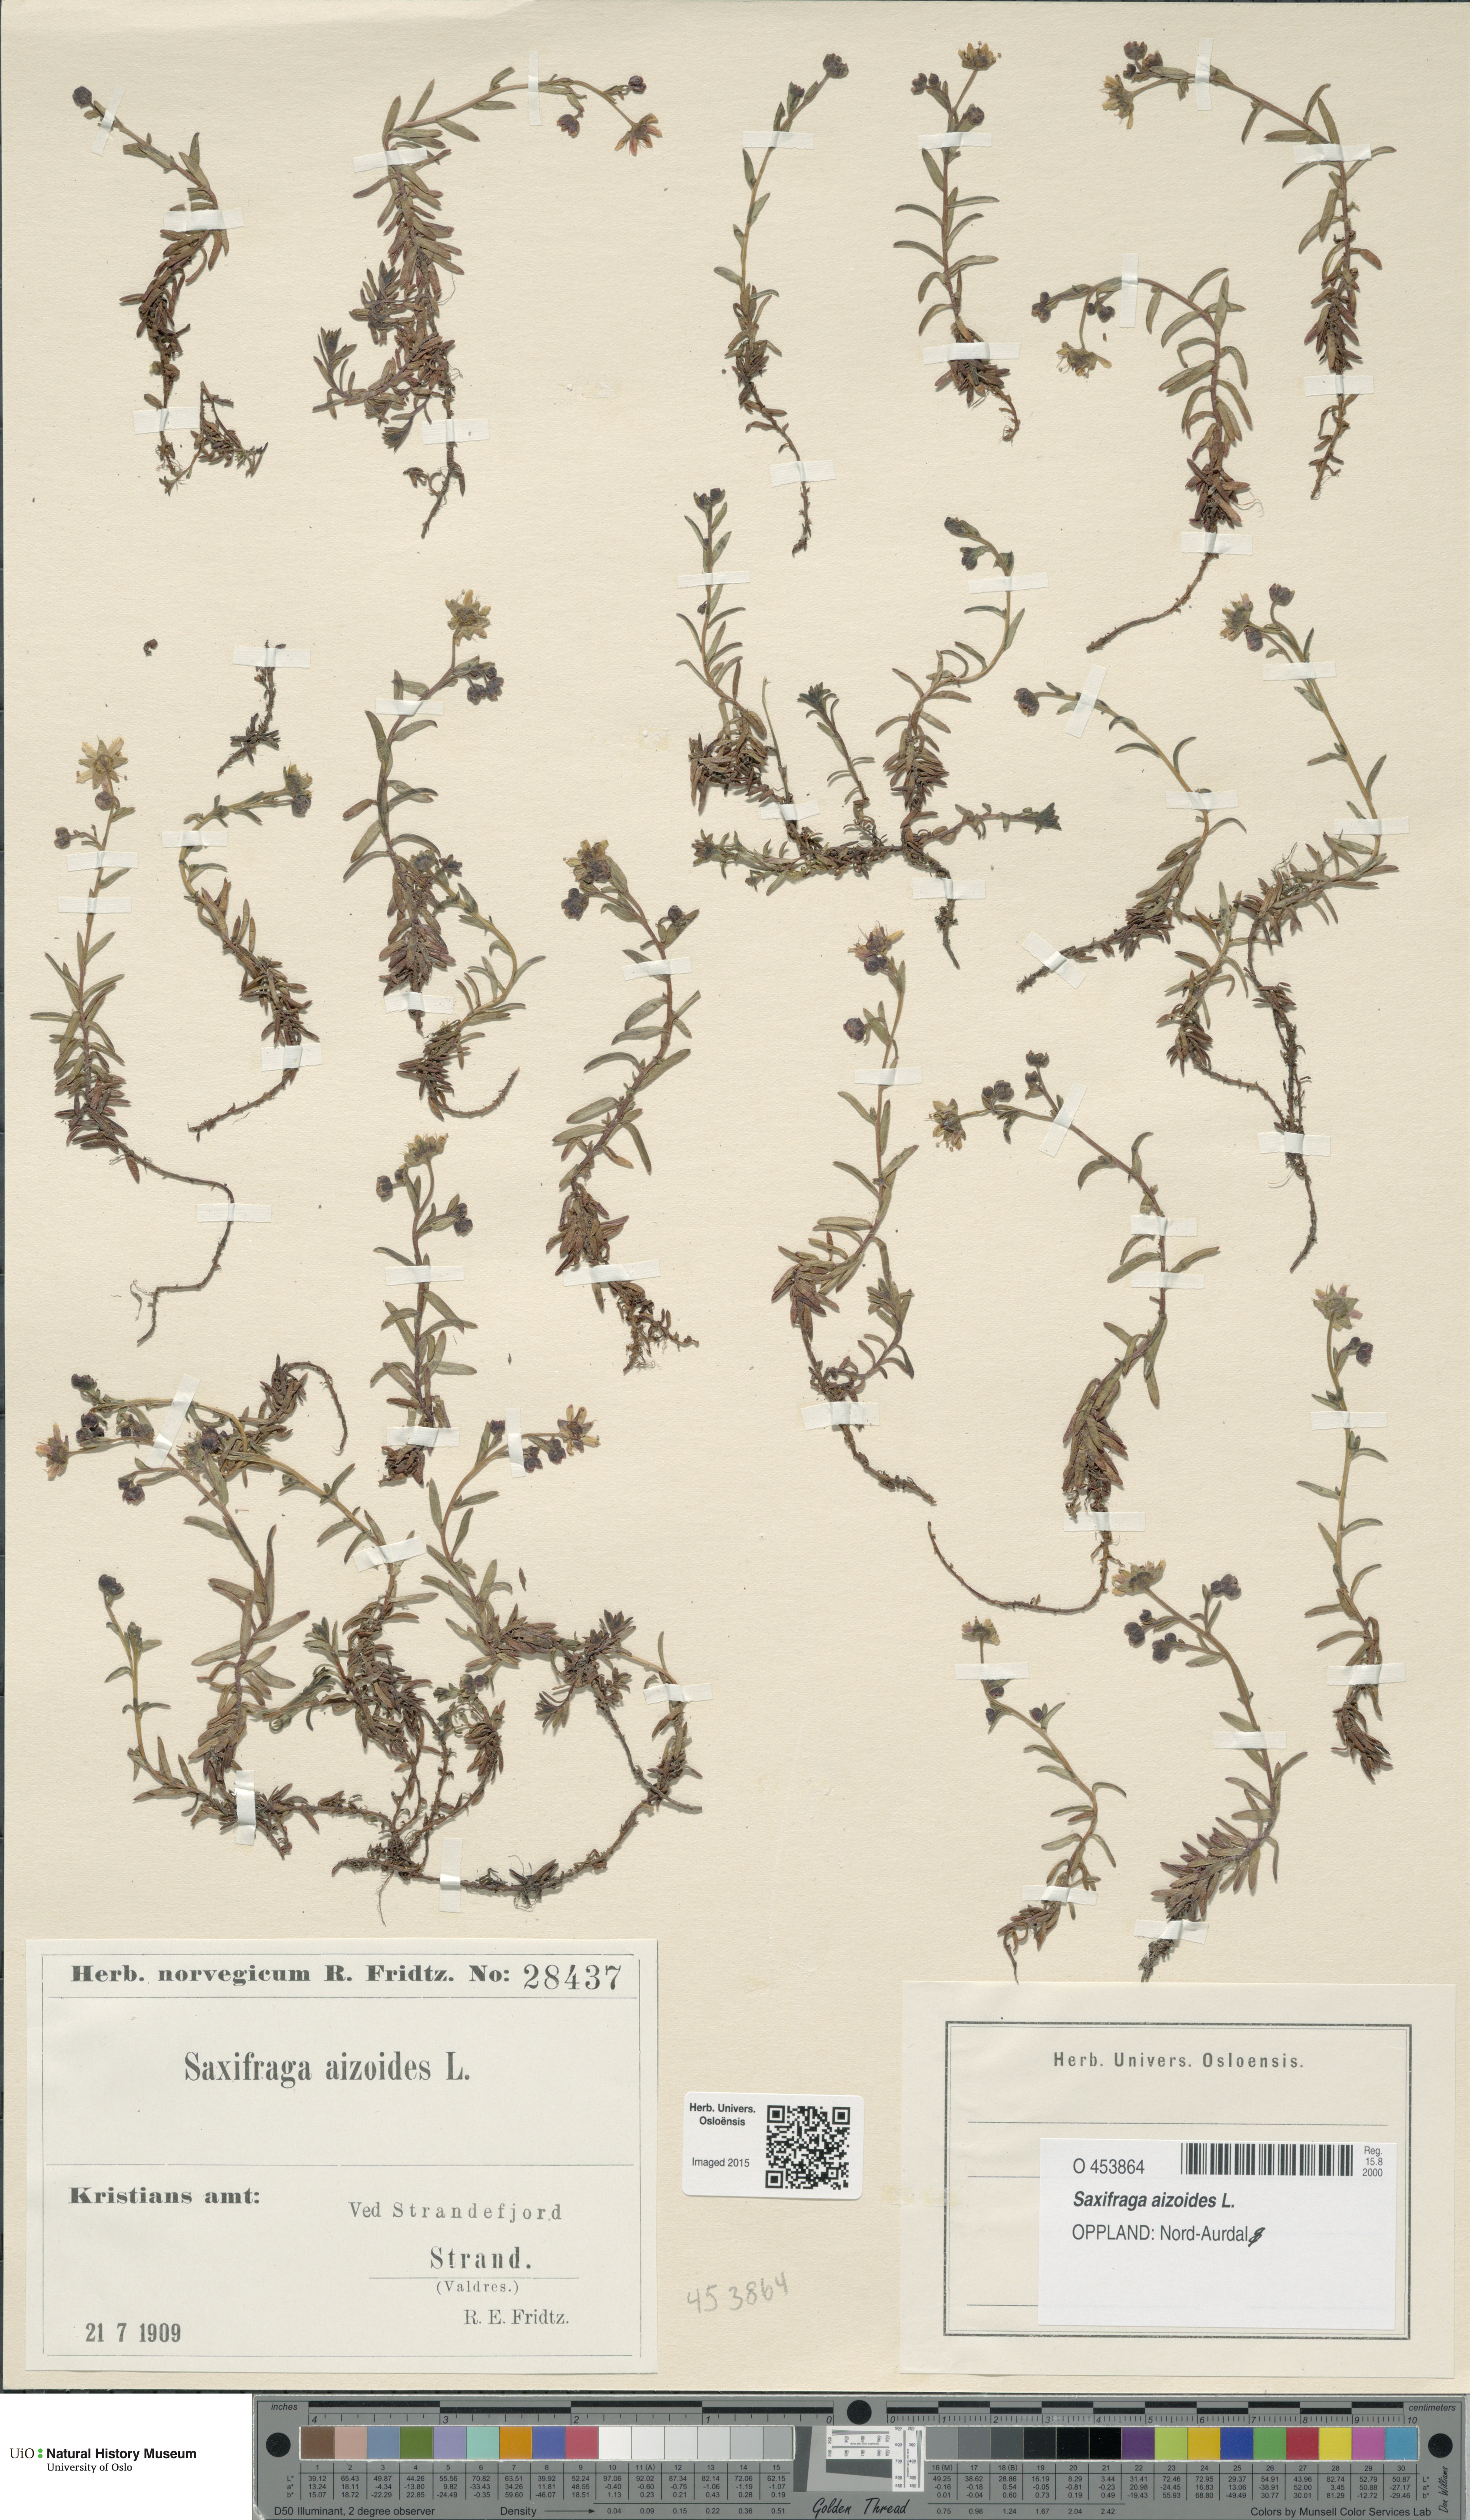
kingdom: Plantae
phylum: Tracheophyta
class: Magnoliopsida
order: Saxifragales
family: Saxifragaceae
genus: Saxifraga
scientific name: Saxifraga aizoides
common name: Yellow mountain saxifrage
